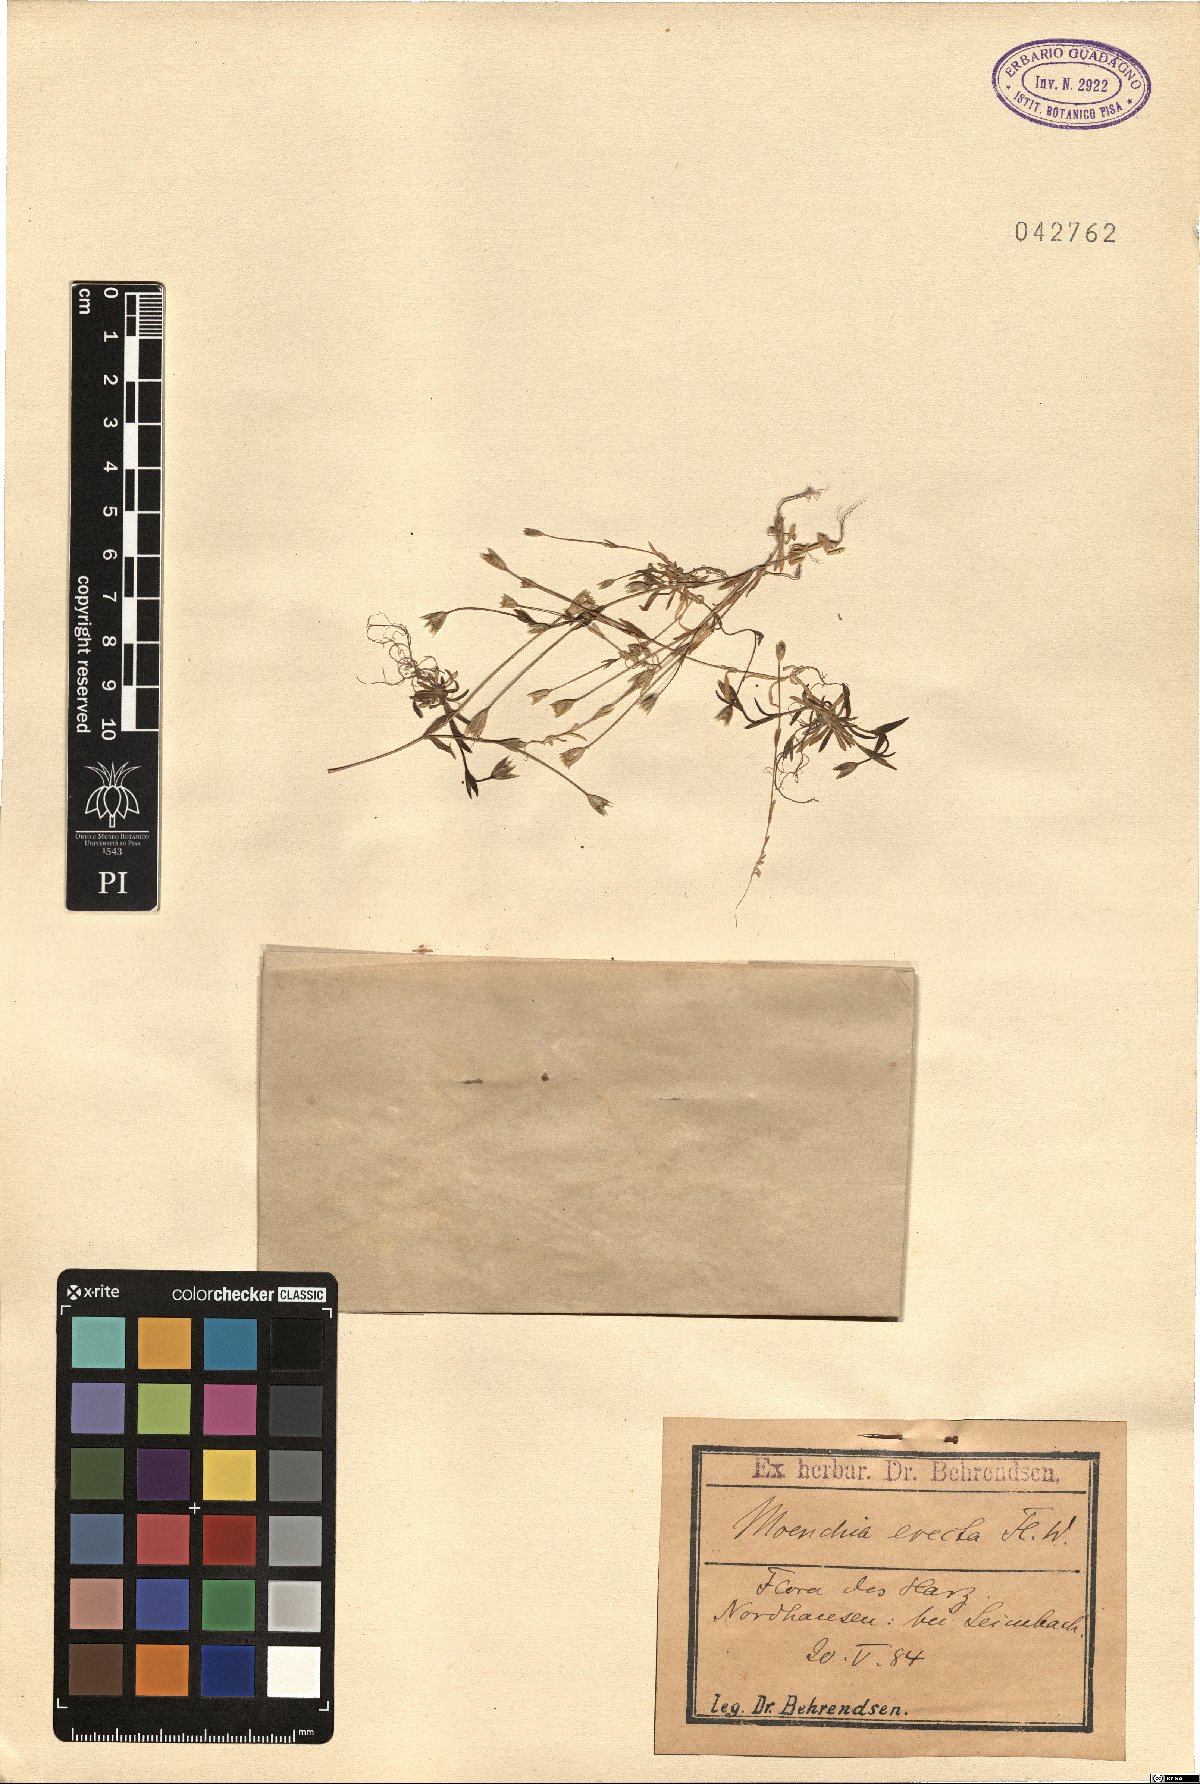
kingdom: Plantae
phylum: Tracheophyta
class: Magnoliopsida
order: Caryophyllales
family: Caryophyllaceae
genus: Moenchia
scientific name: Moenchia erecta
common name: Upright chickweed
